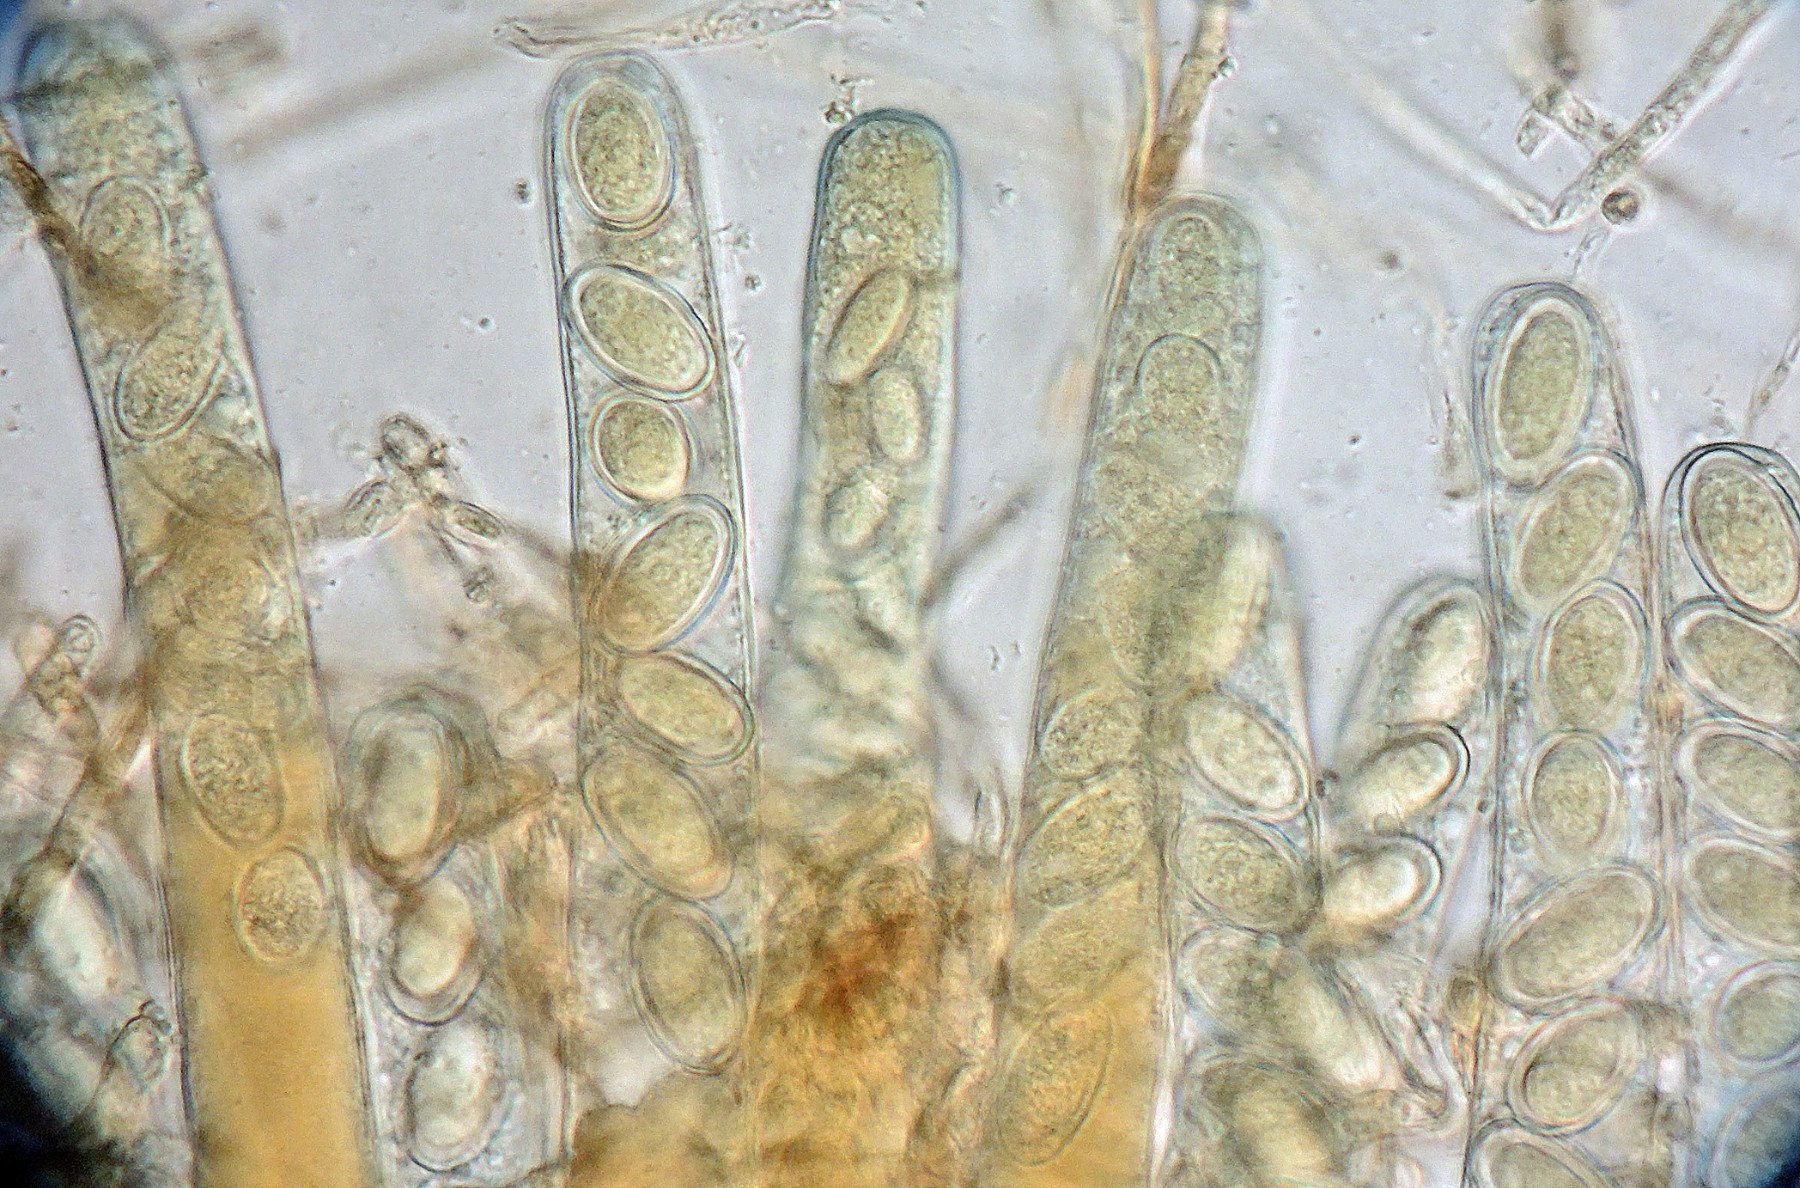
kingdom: Fungi
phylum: Ascomycota
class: Pezizomycetes
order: Pezizales
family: Pezizaceae
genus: Peziza
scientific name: Peziza
